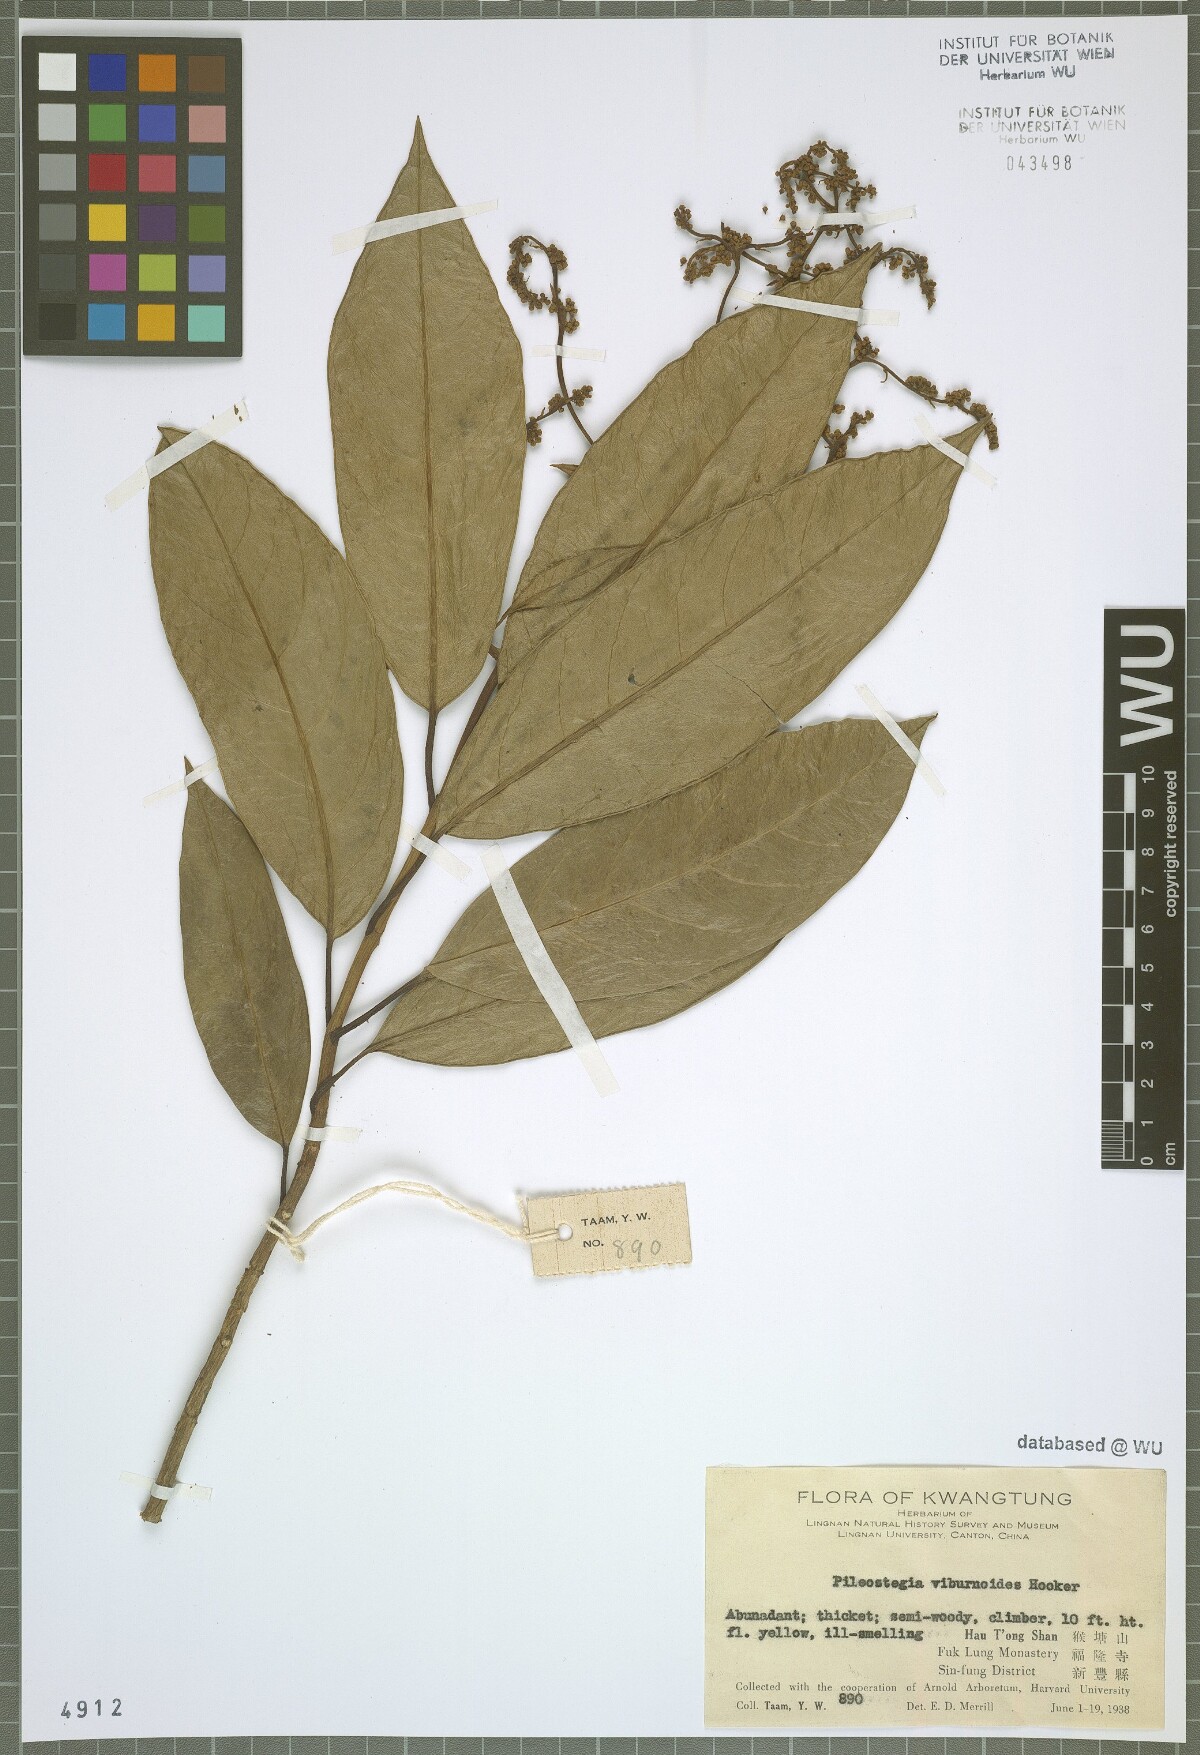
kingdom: Plantae
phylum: Tracheophyta
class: Magnoliopsida
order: Cornales
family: Hydrangeaceae
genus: Hydrangea
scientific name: Hydrangea viburnoides
